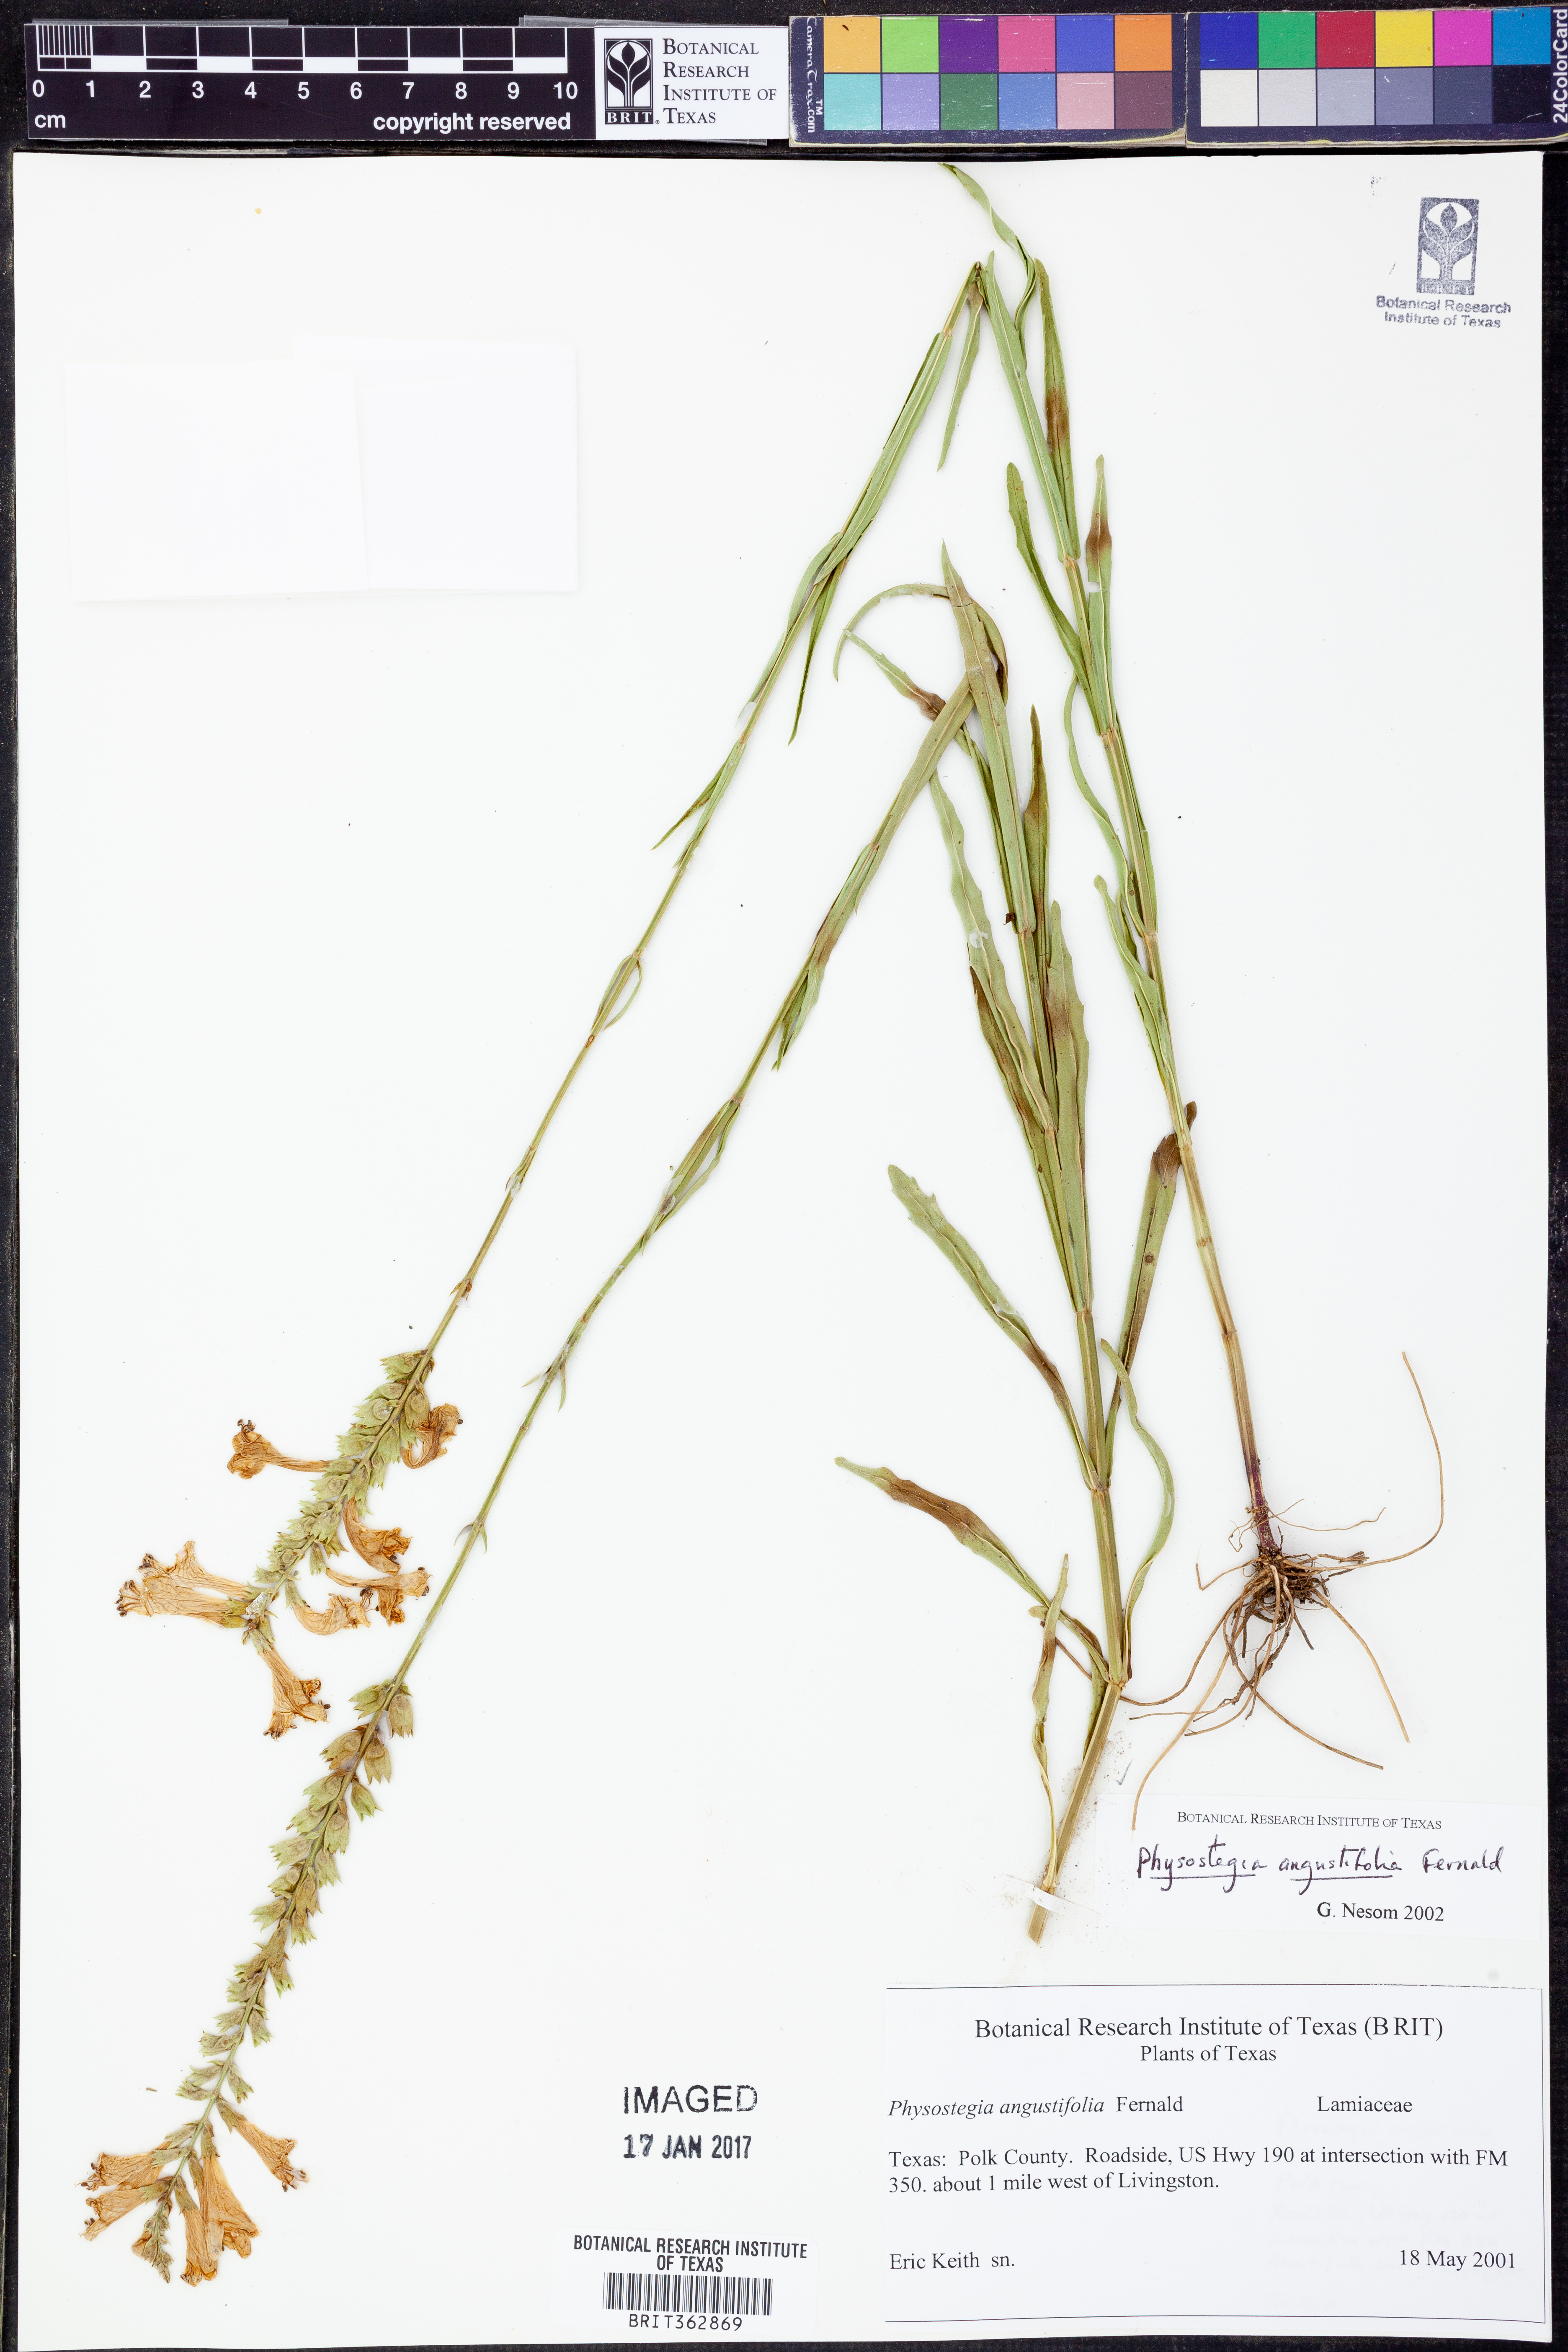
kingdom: Plantae
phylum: Tracheophyta
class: Magnoliopsida
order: Lamiales
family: Lamiaceae
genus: Physostegia
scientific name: Physostegia angustifolia
